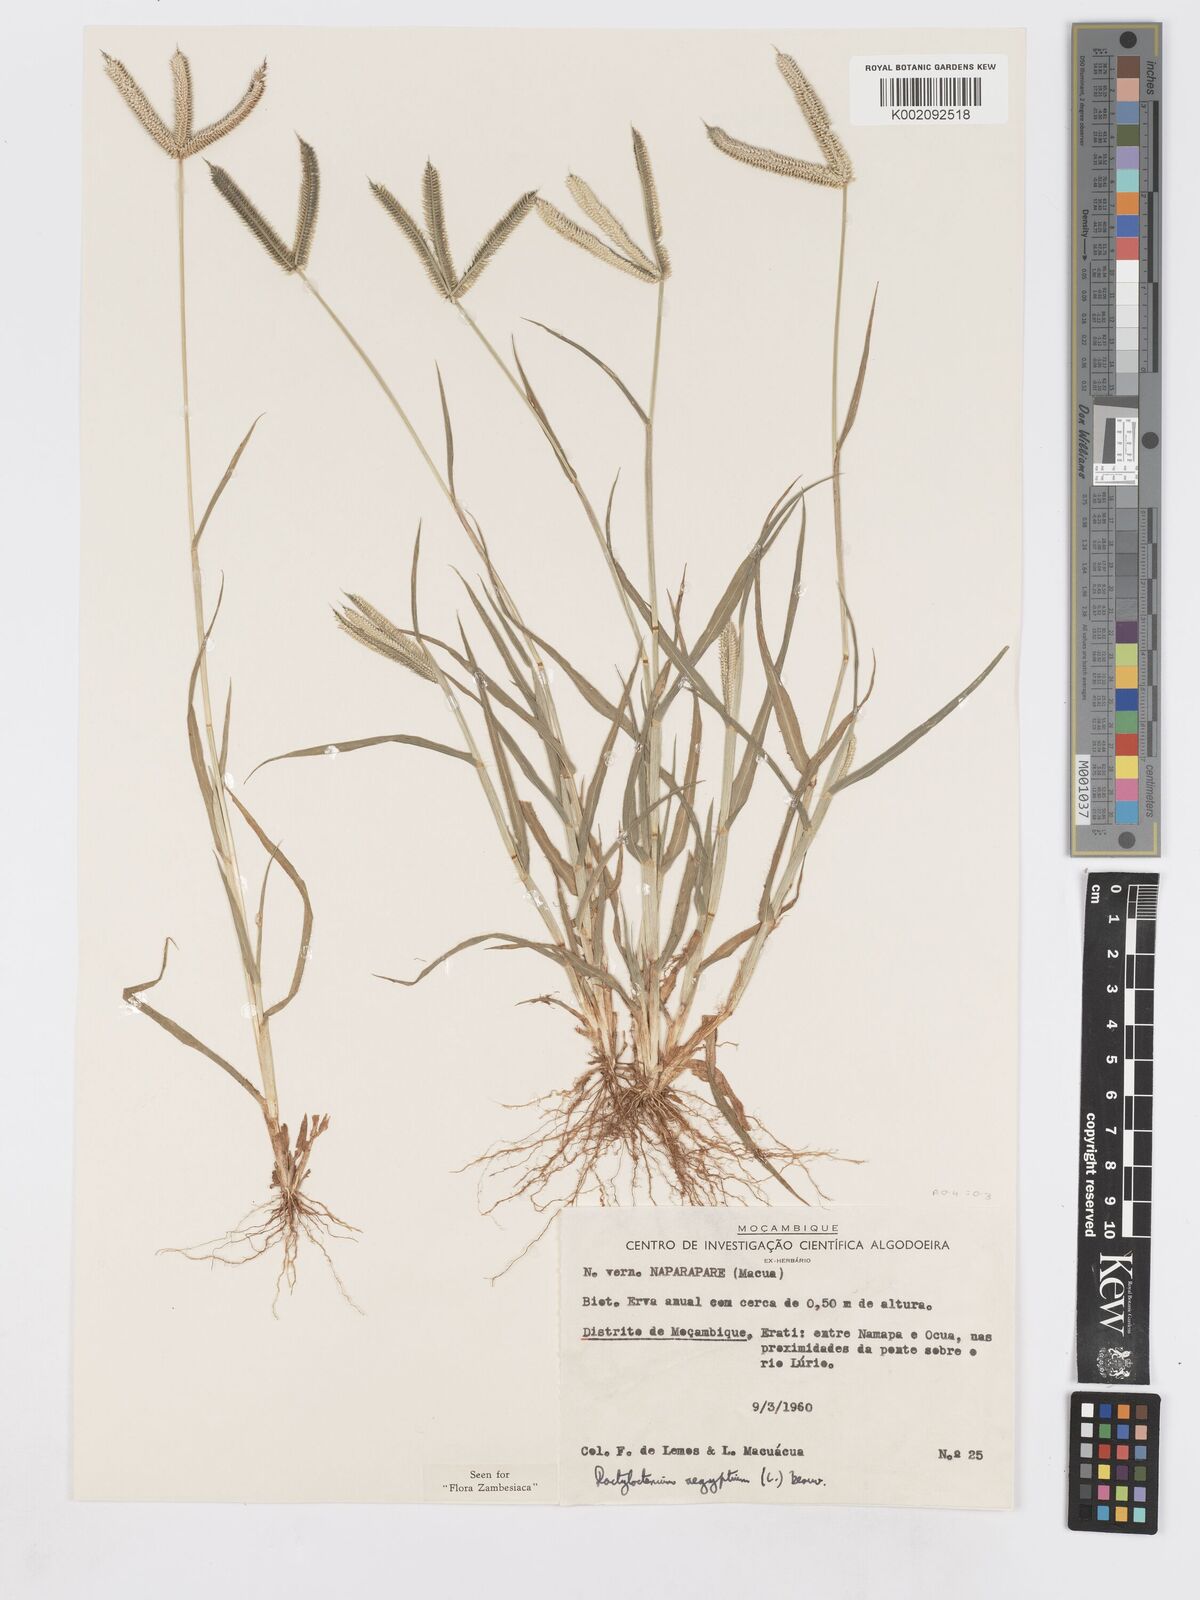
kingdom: Plantae
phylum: Tracheophyta
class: Liliopsida
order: Poales
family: Poaceae
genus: Dactyloctenium
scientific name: Dactyloctenium aegyptium
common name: Egyptian grass
